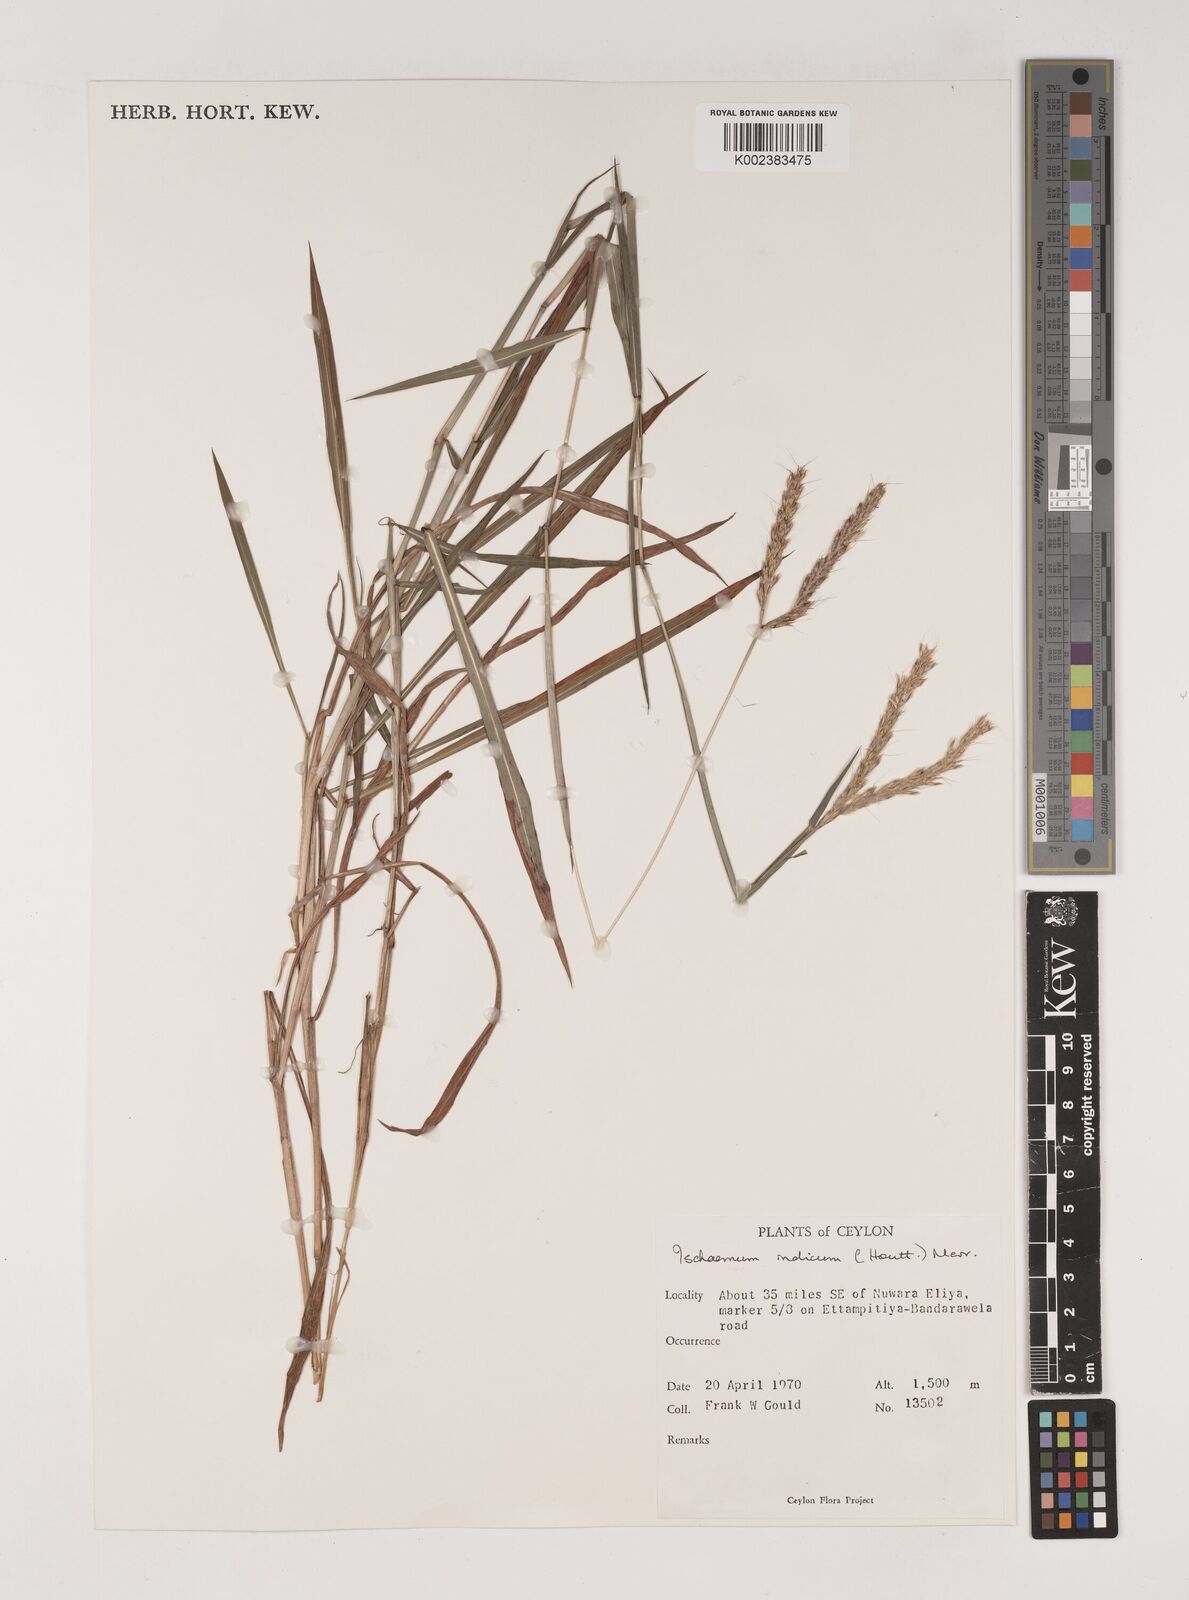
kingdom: Plantae
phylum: Tracheophyta
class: Liliopsida
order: Poales
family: Poaceae
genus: Polytrias
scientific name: Polytrias indica
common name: Indian murainagrass
